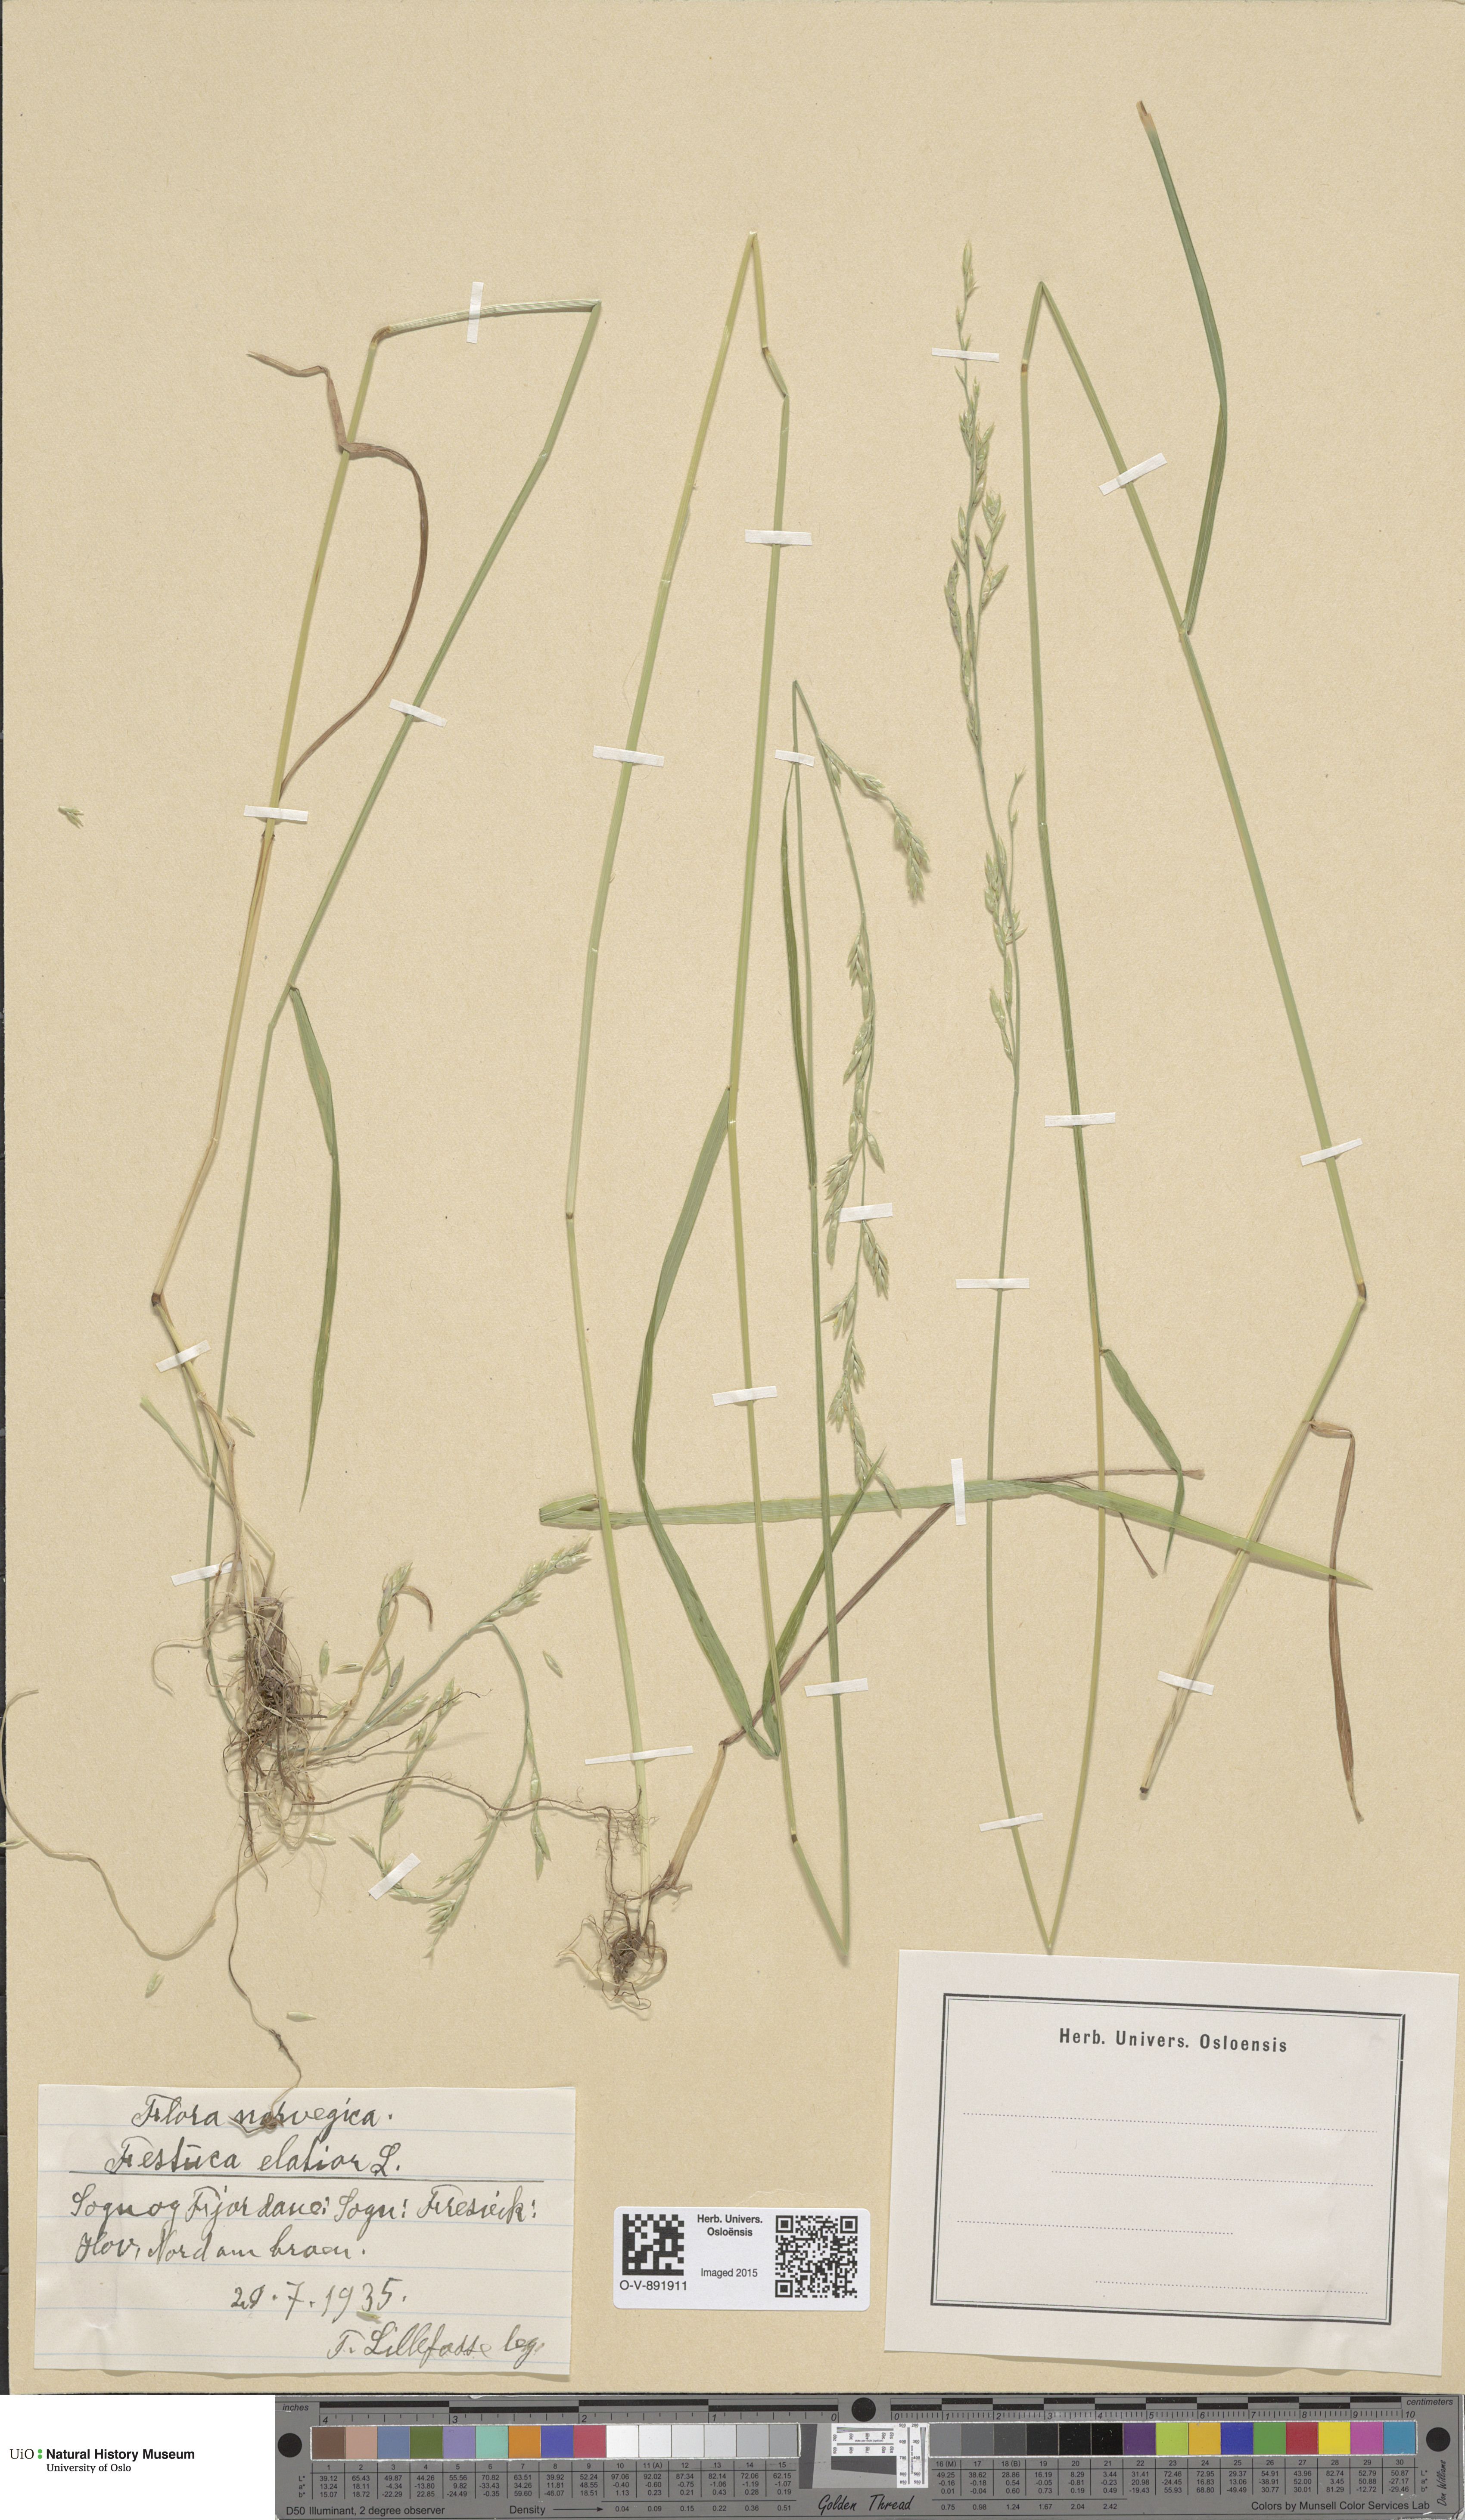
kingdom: Plantae
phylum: Tracheophyta
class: Liliopsida
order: Poales
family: Poaceae
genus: Lolium
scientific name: Lolium arundinaceum
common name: Reed fescue
